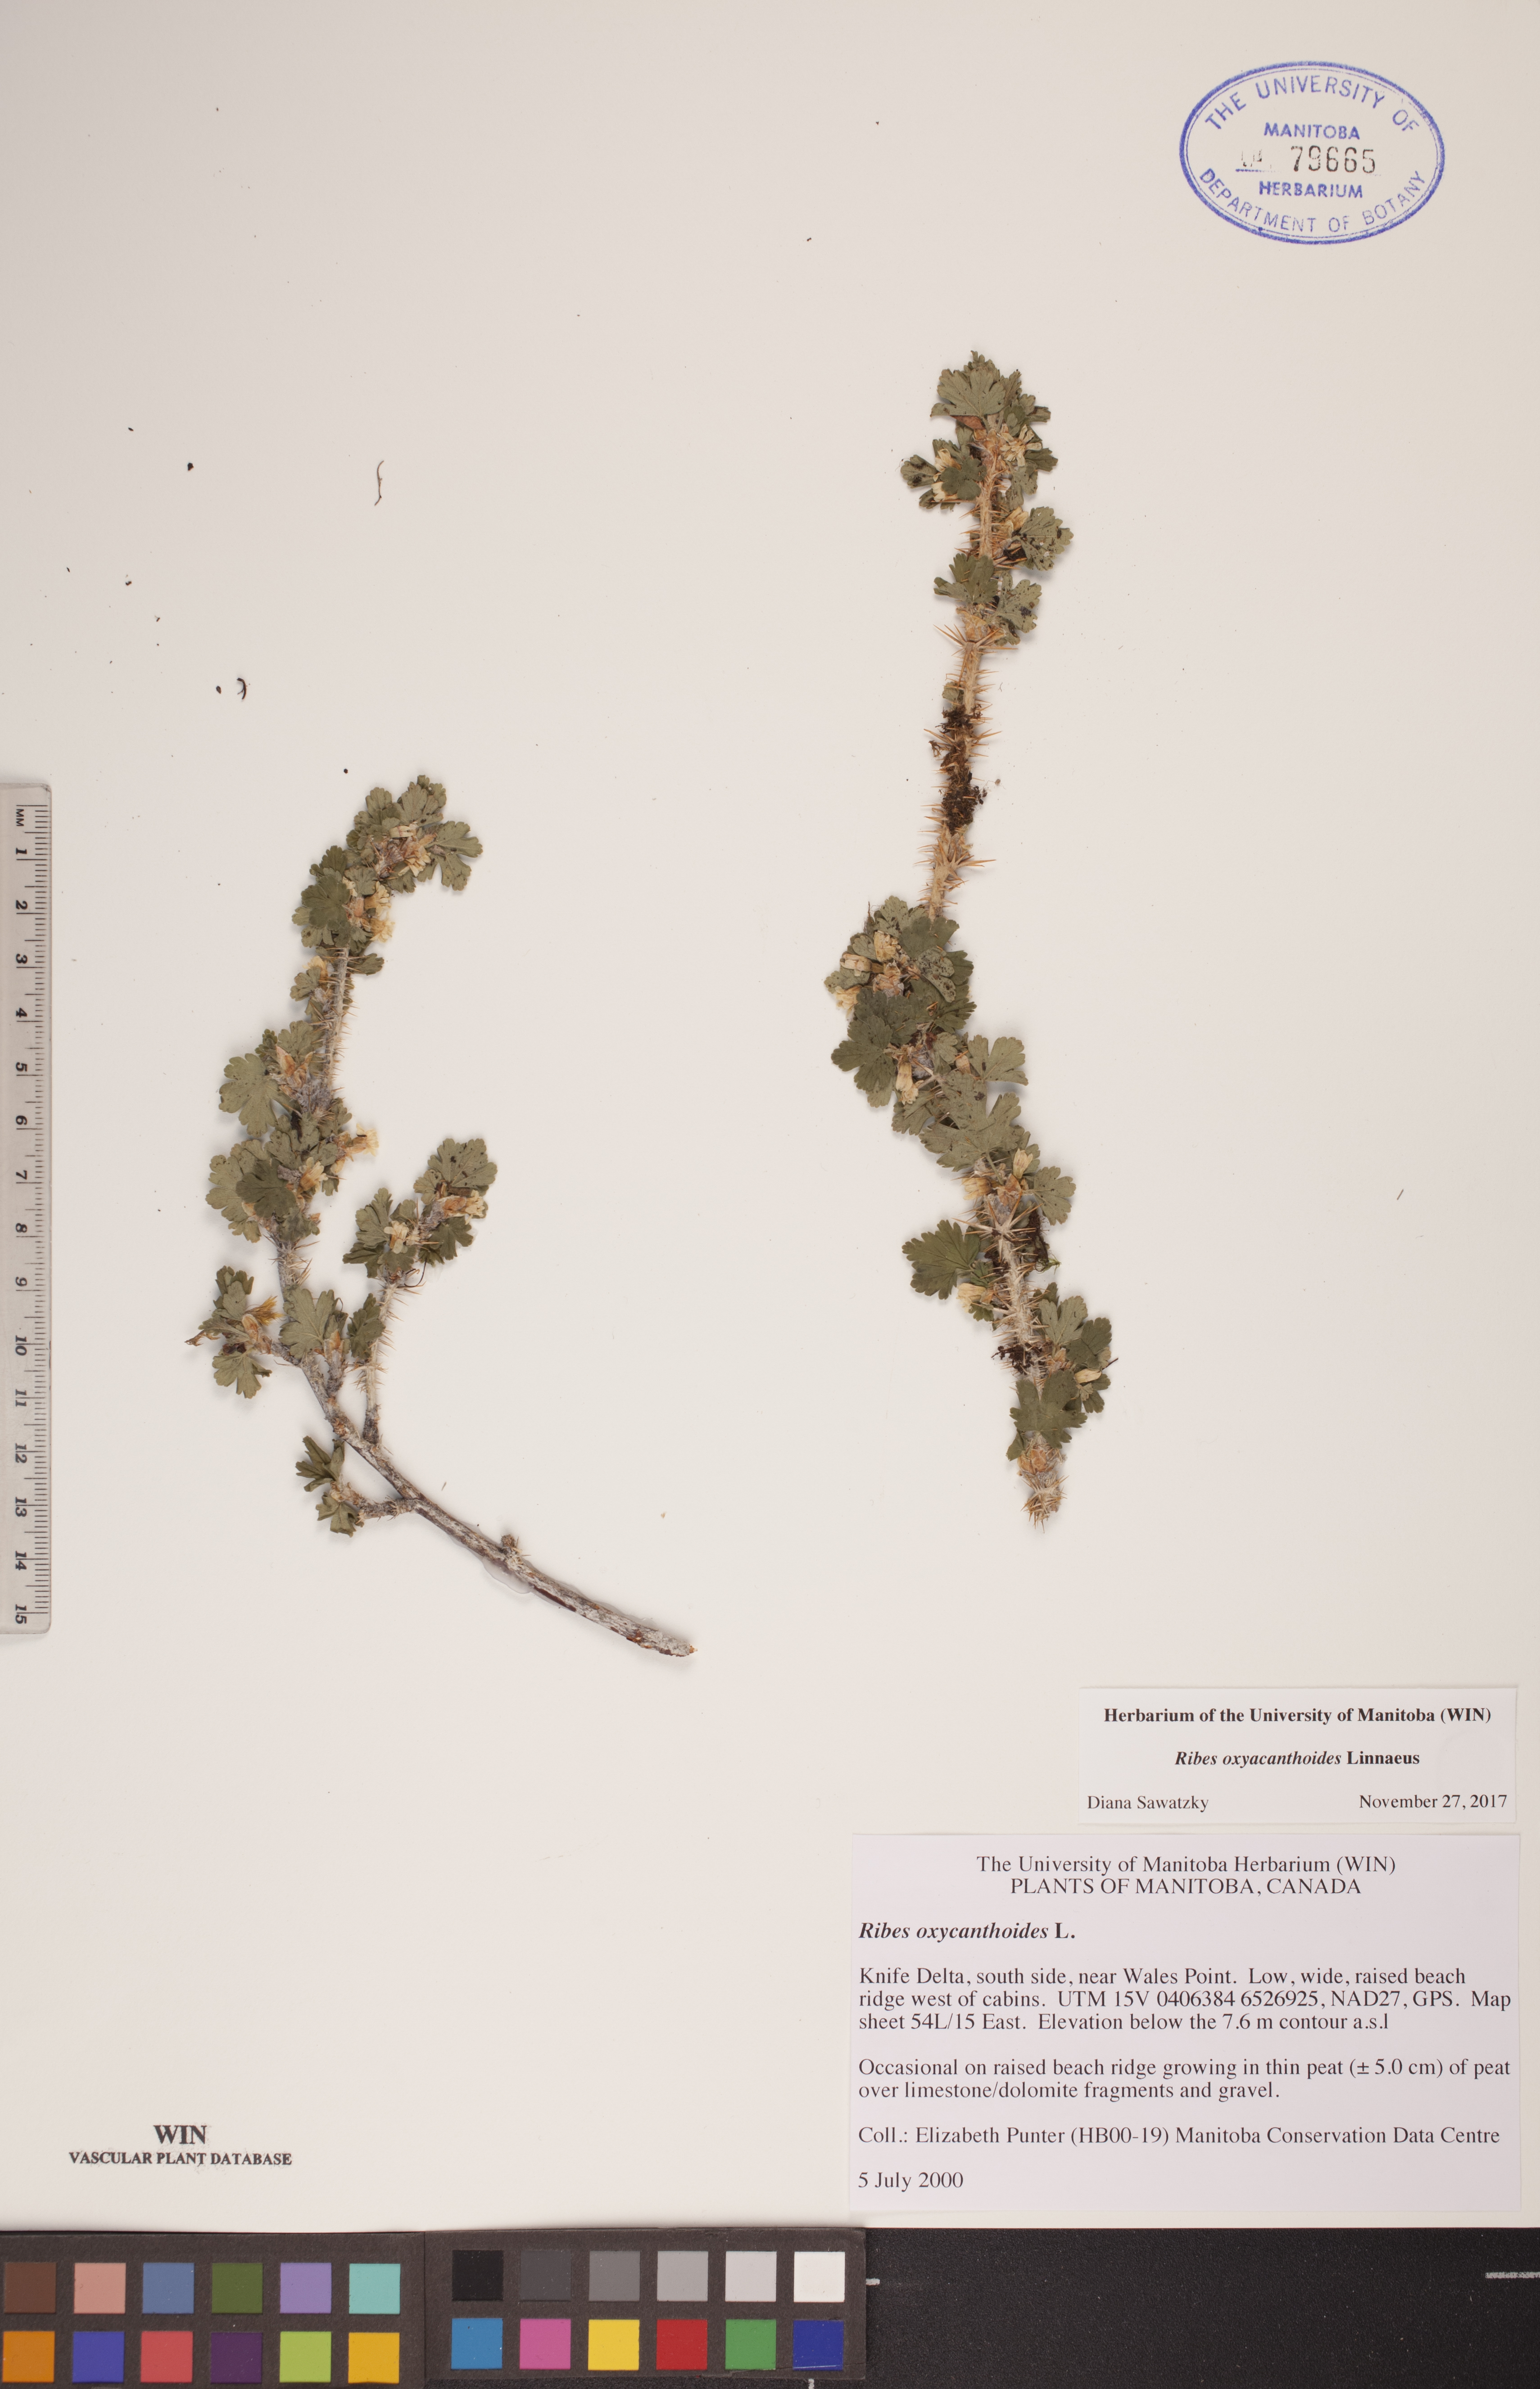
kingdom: Plantae
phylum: Tracheophyta
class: Magnoliopsida
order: Saxifragales
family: Grossulariaceae
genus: Ribes
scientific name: Ribes oxyacanthoides
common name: Northern gooseberry
